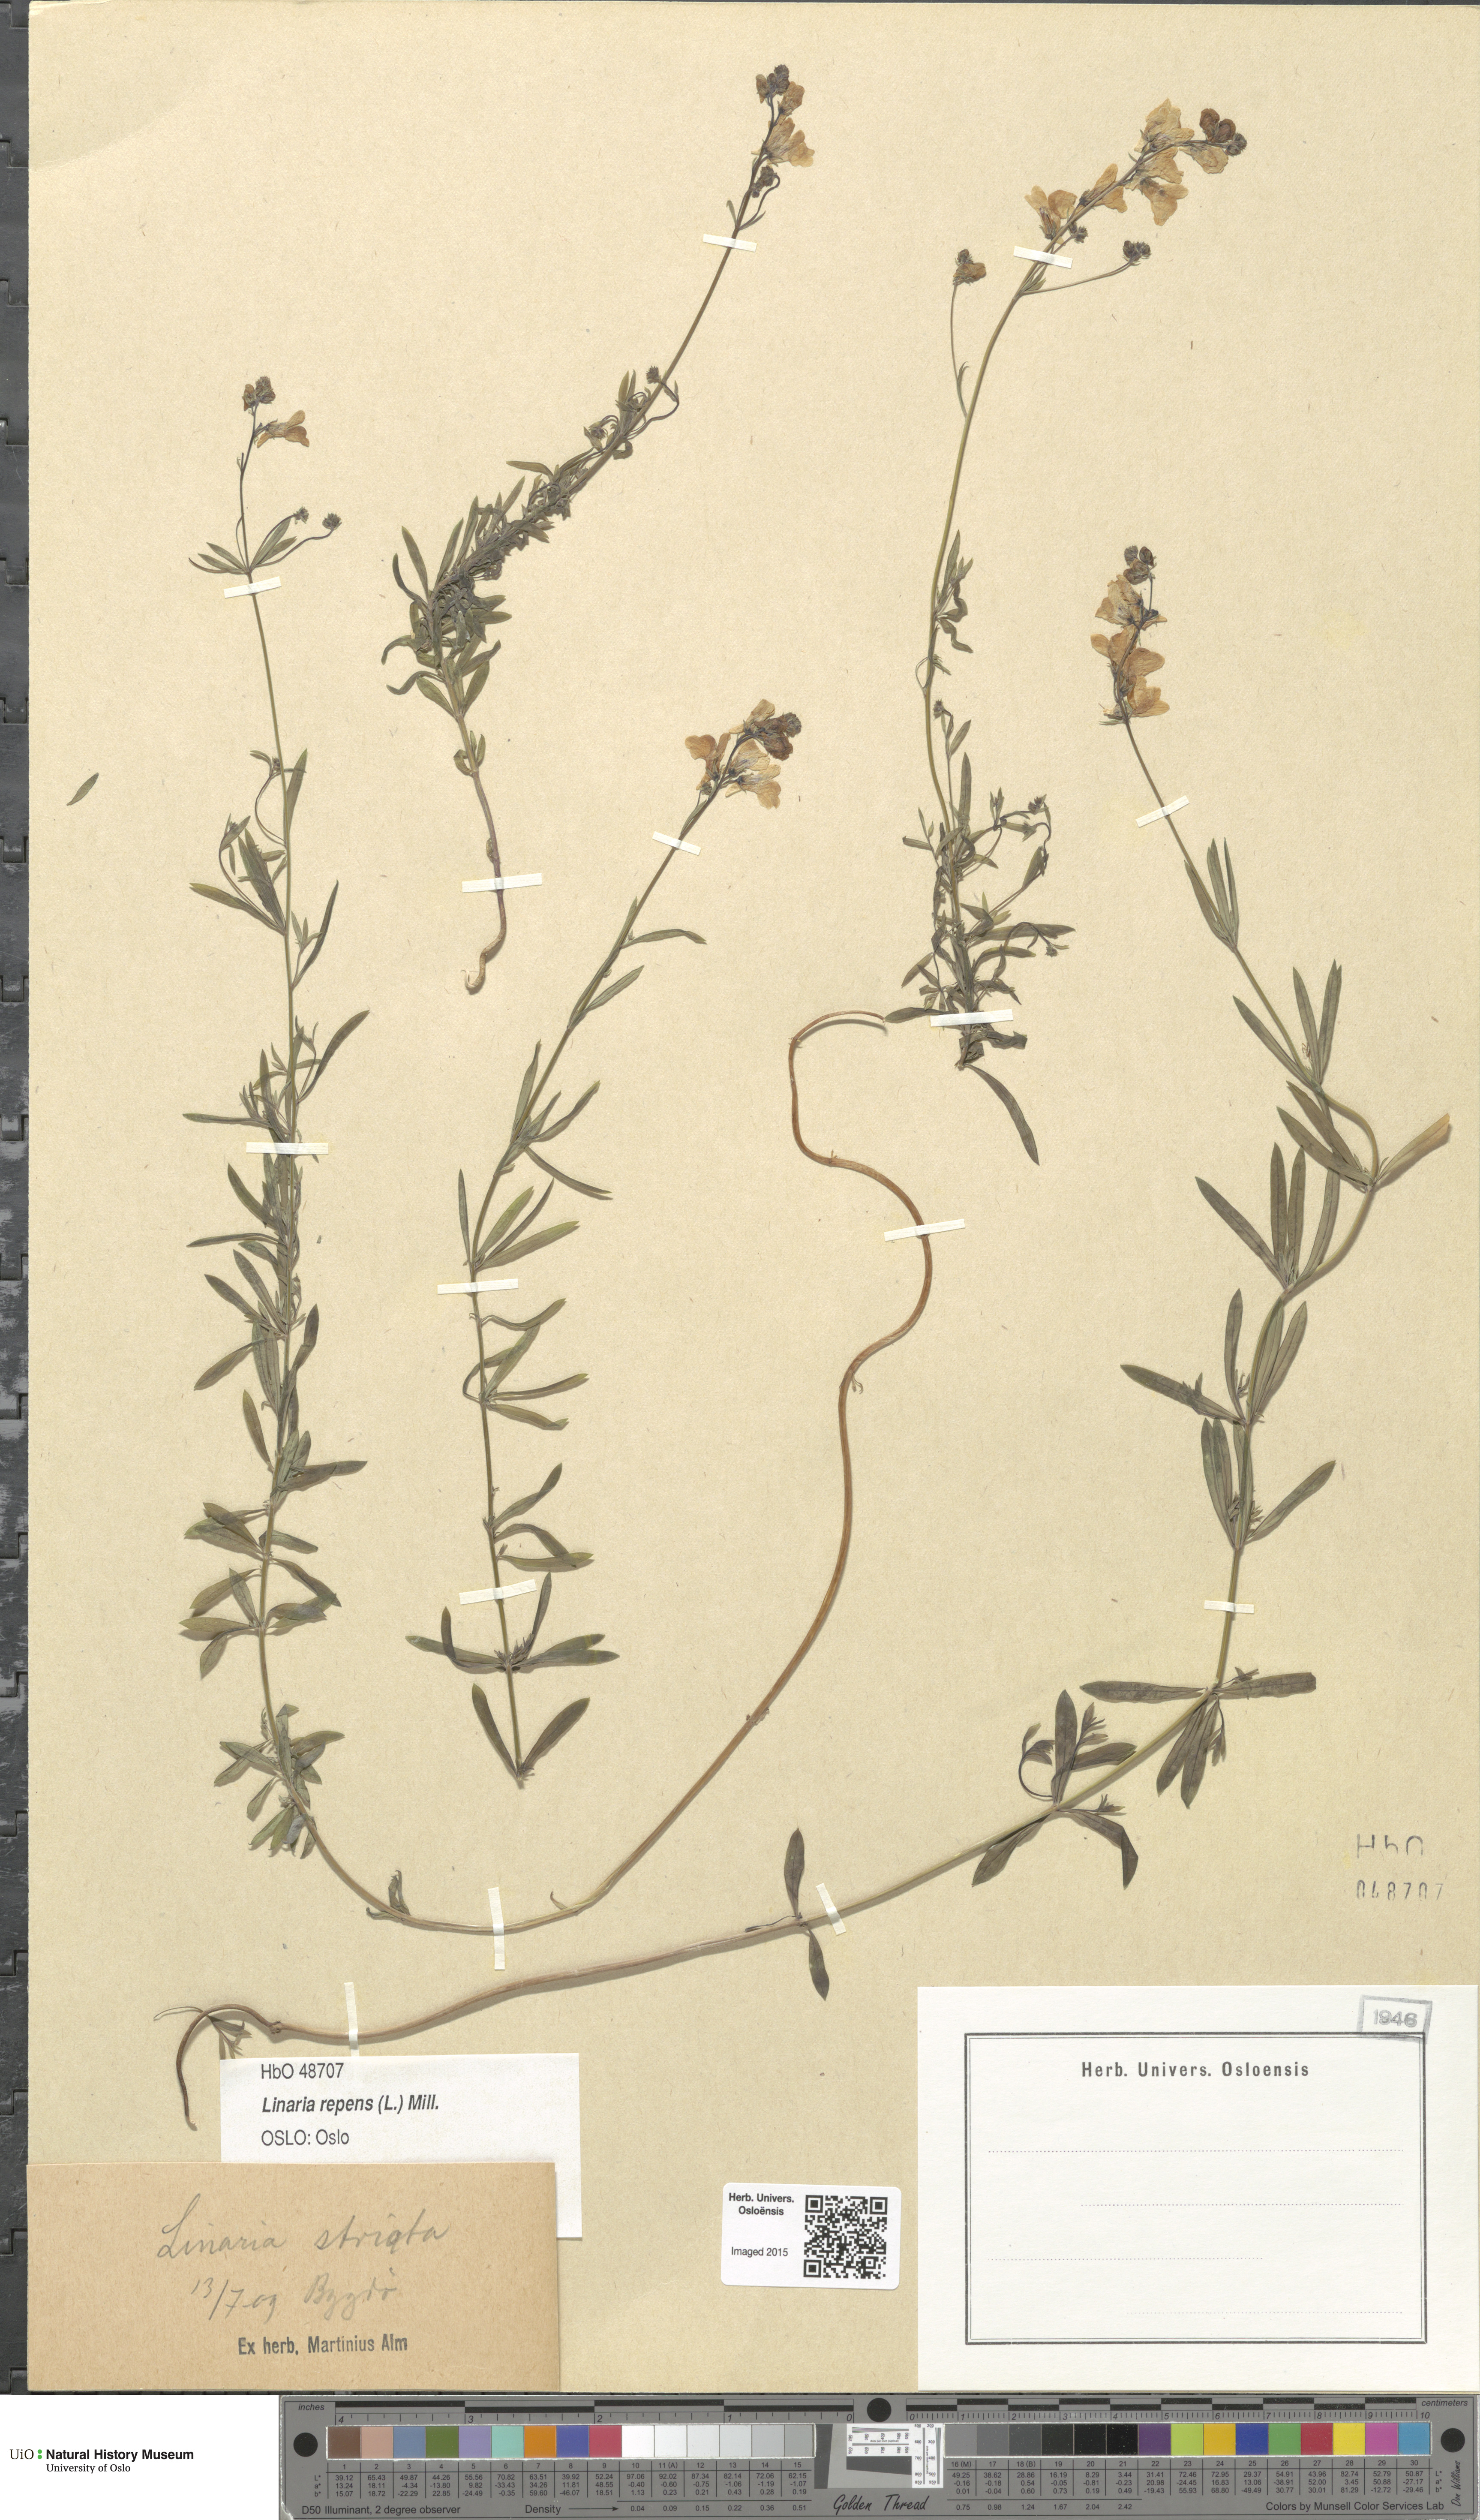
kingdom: Plantae
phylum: Tracheophyta
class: Magnoliopsida
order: Lamiales
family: Plantaginaceae
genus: Linaria
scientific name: Linaria repens
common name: Pale toadflax
